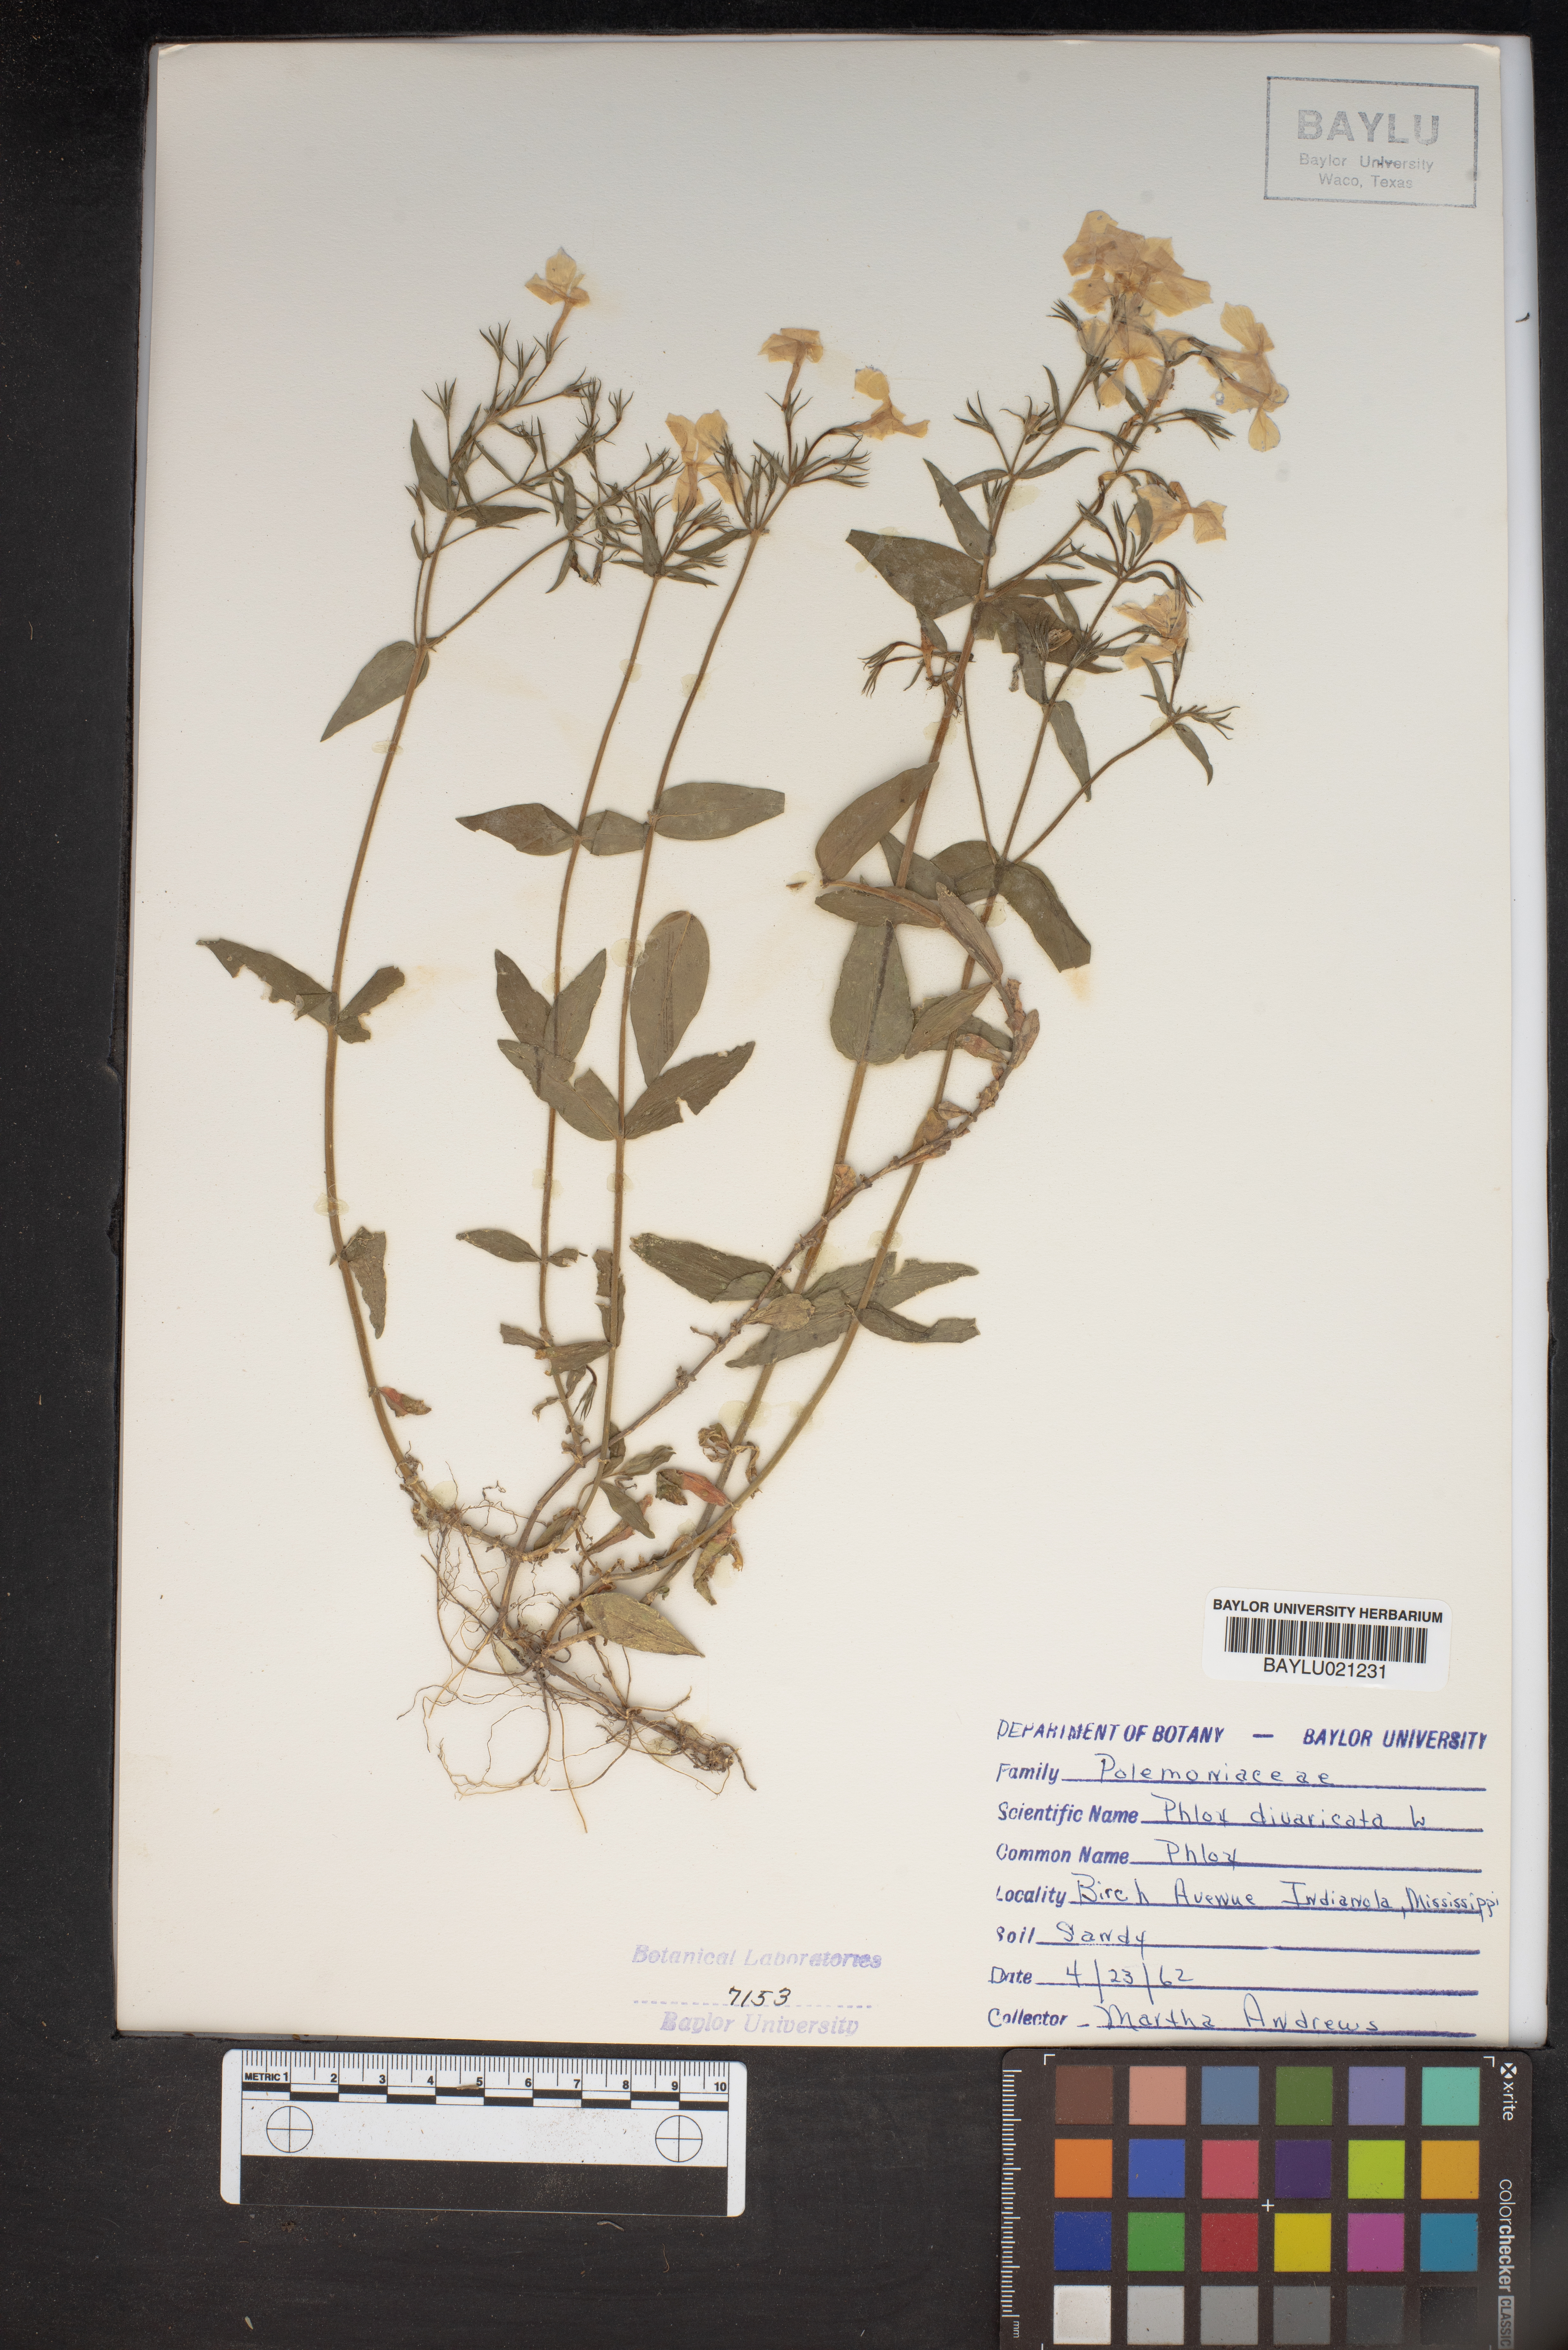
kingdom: Plantae
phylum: Tracheophyta
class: Magnoliopsida
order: Ericales
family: Polemoniaceae
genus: Phlox
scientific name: Phlox divaricata
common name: Blue phlox
